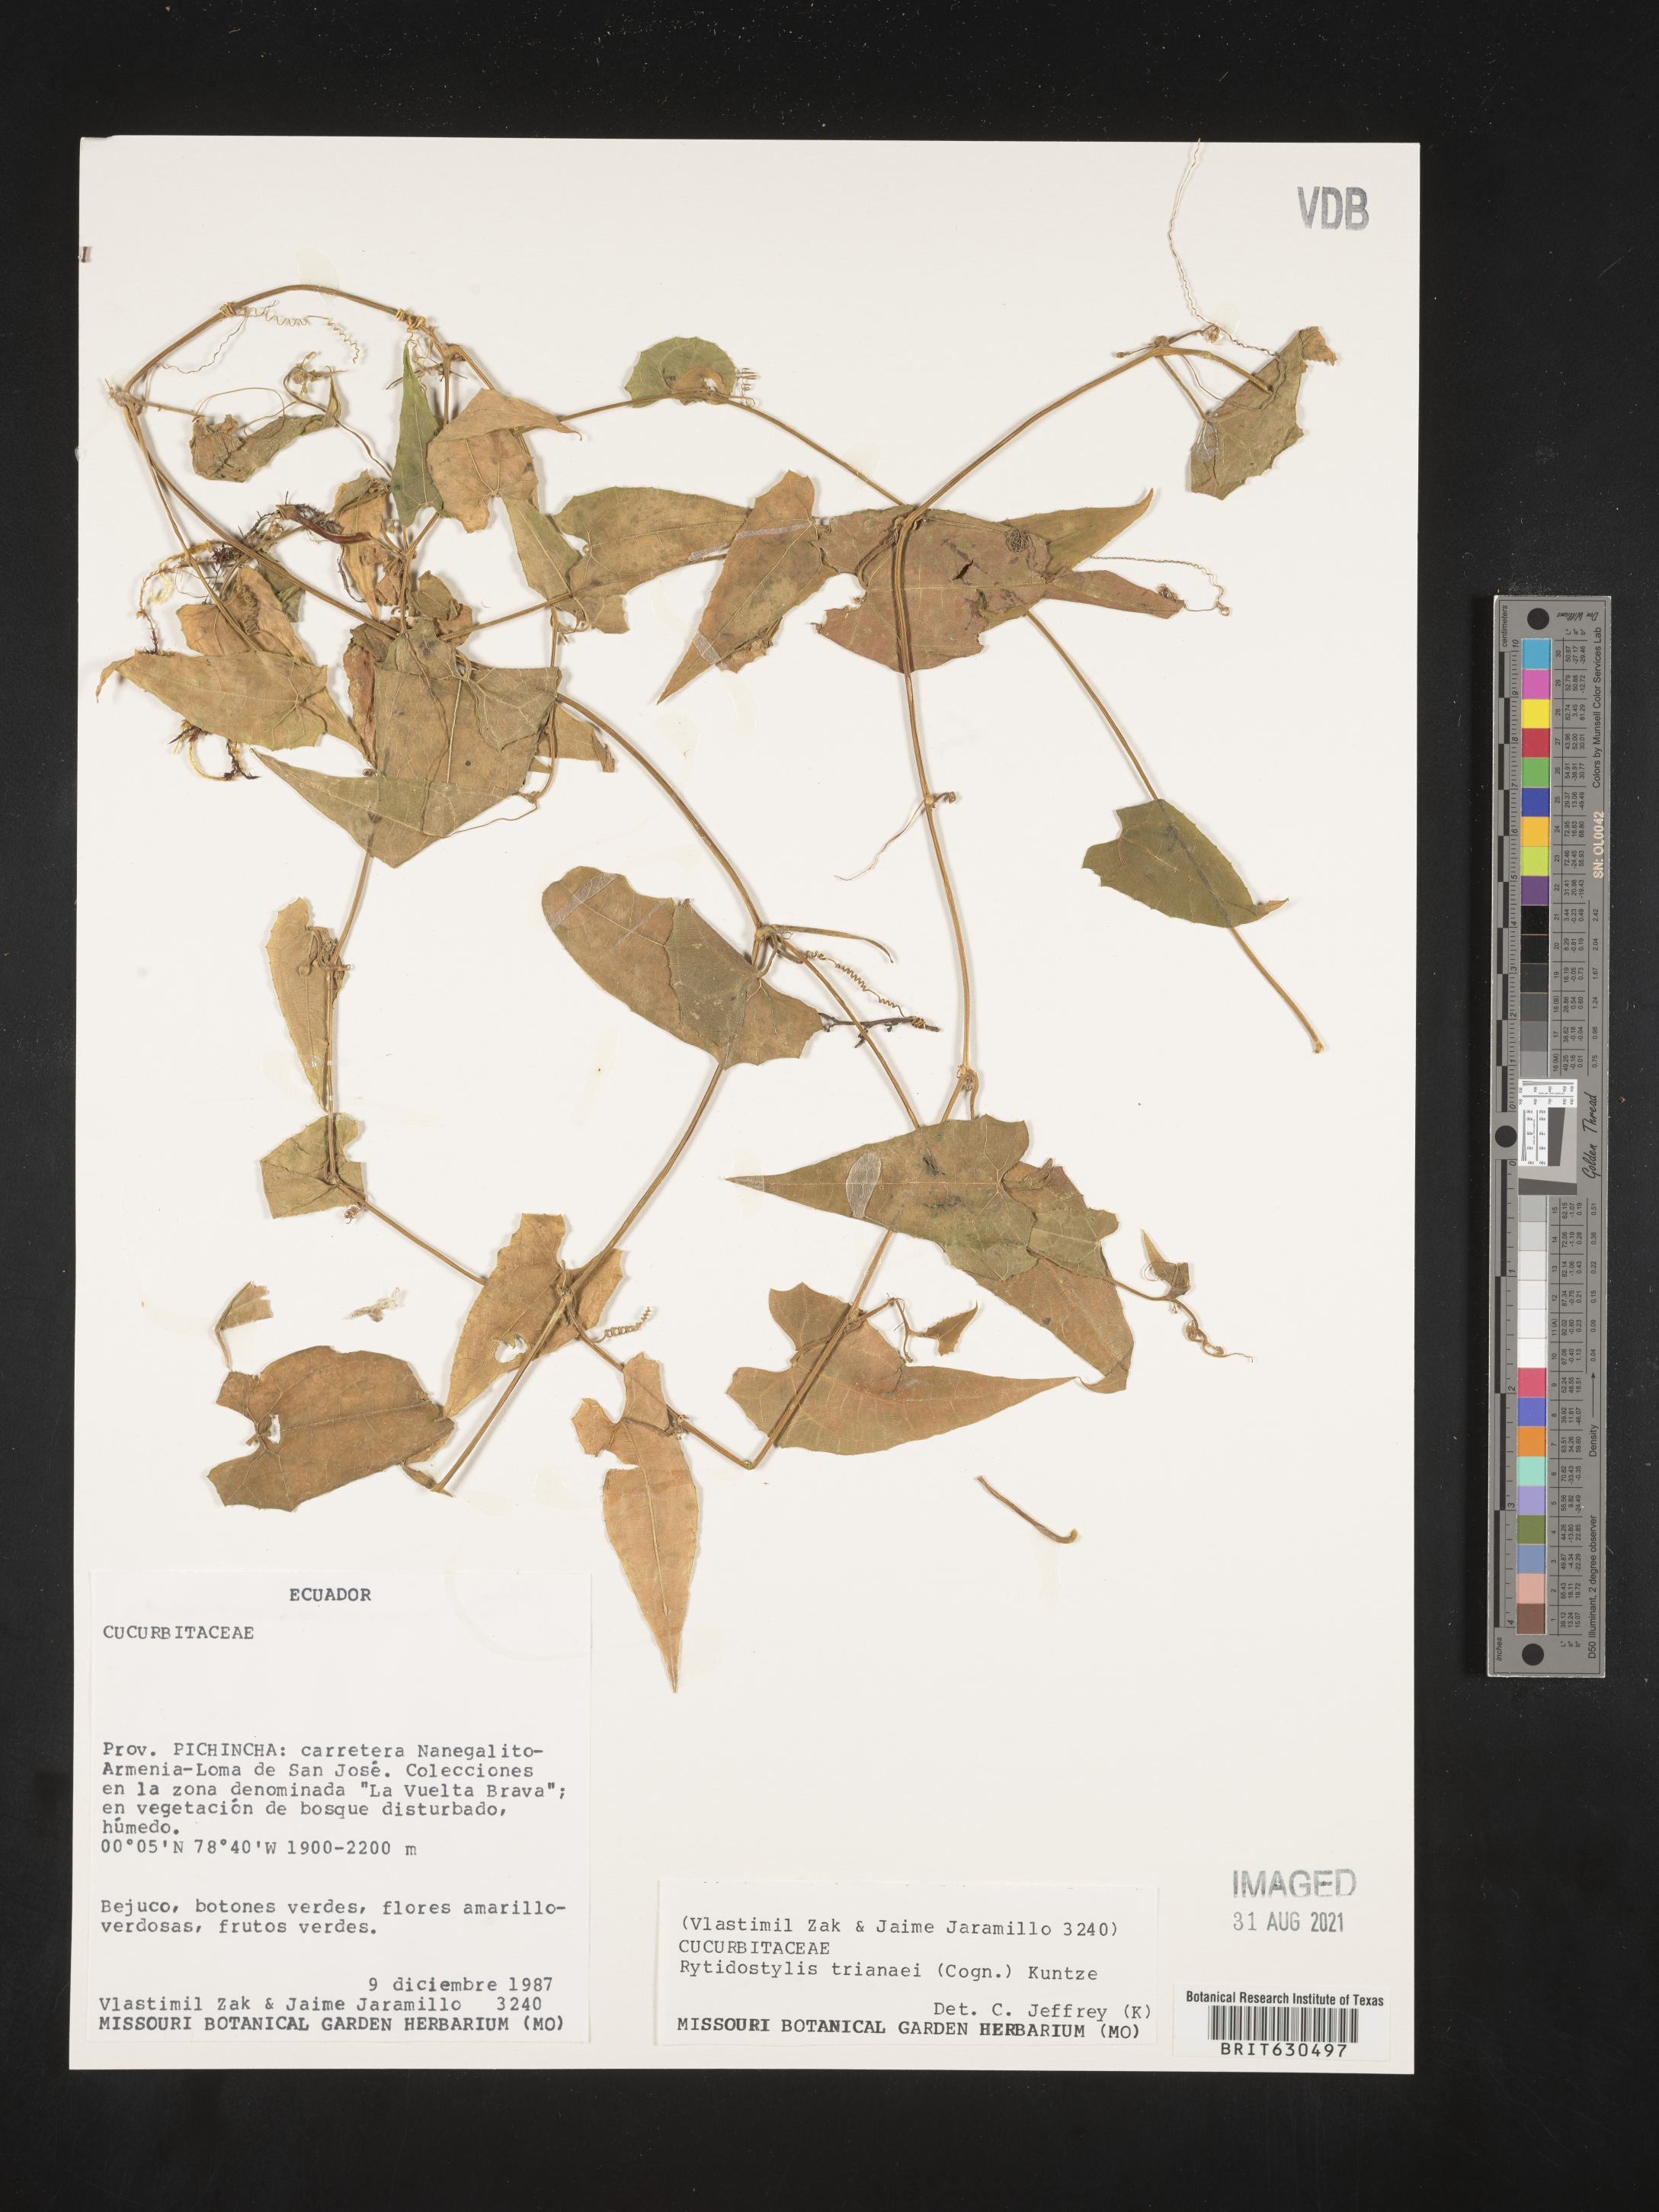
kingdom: Plantae
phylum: Tracheophyta
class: Magnoliopsida
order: Cucurbitales
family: Cucurbitaceae
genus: Cyclanthera
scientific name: Cyclanthera peruana
